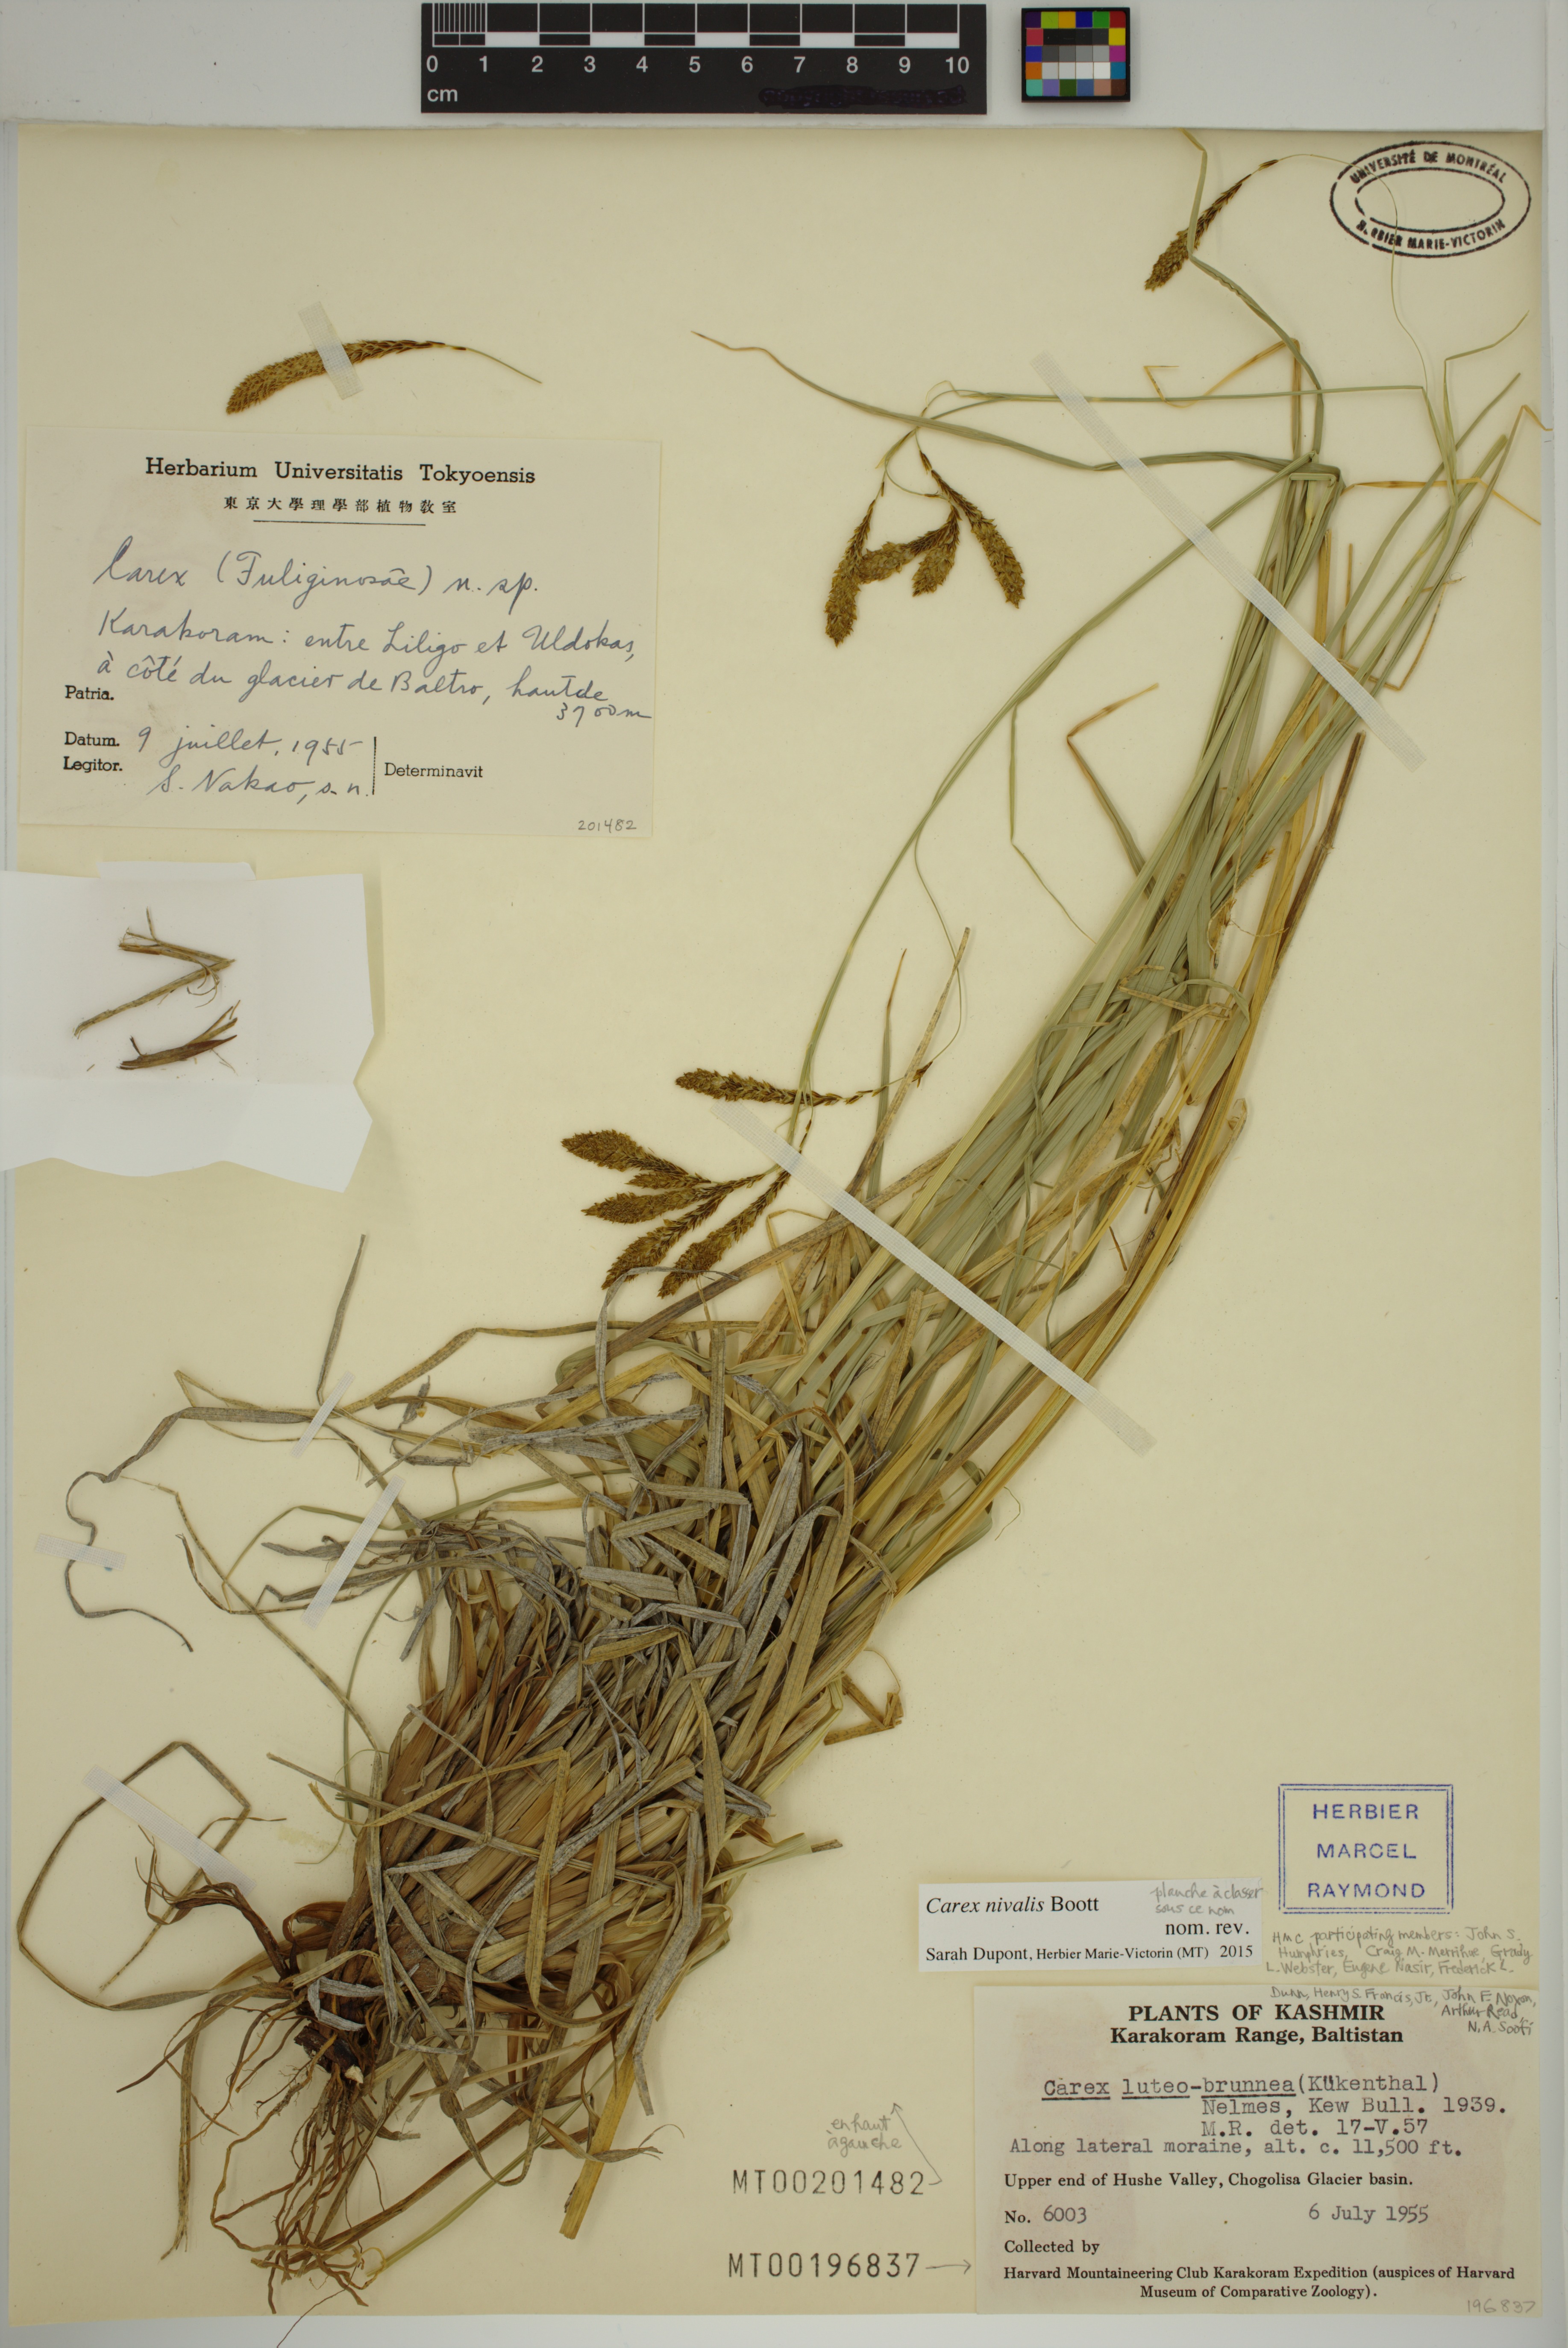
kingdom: Plantae
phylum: Tracheophyta
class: Liliopsida
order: Poales
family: Cyperaceae
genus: Carex
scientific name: Carex nivalis
